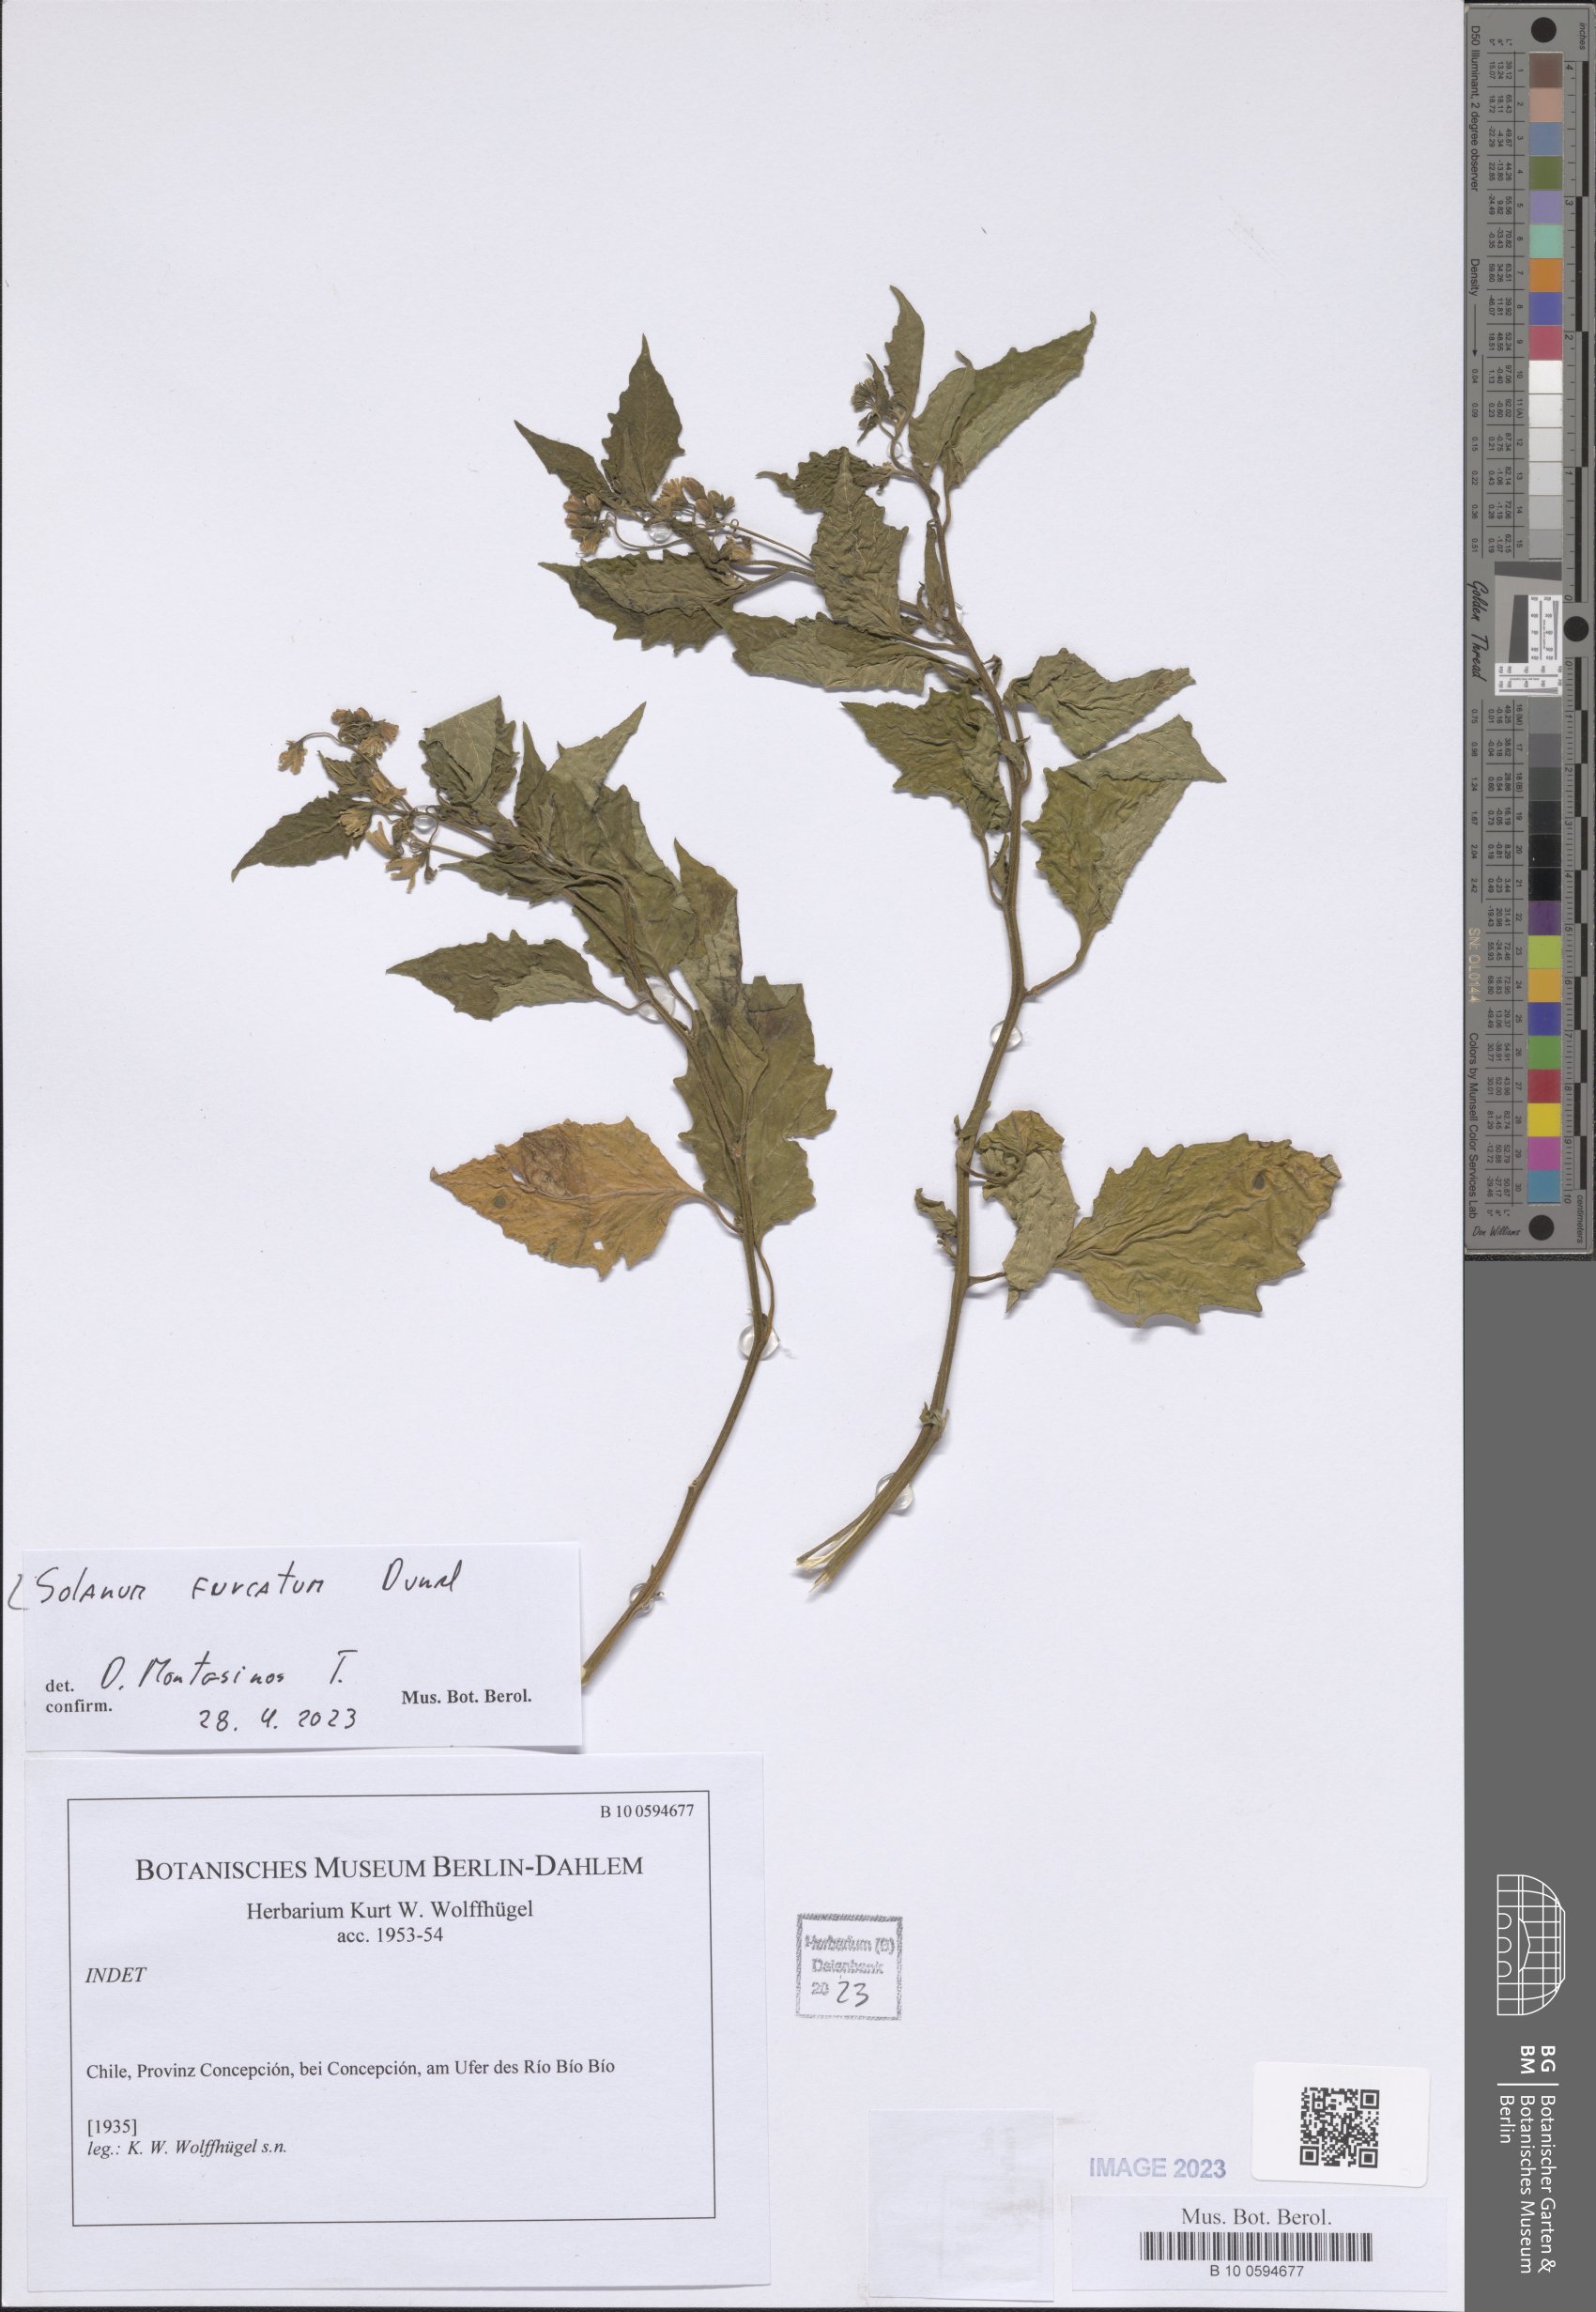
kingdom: Plantae
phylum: Tracheophyta
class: Magnoliopsida
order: Solanales
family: Solanaceae
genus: Solanum
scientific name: Solanum furcatum
